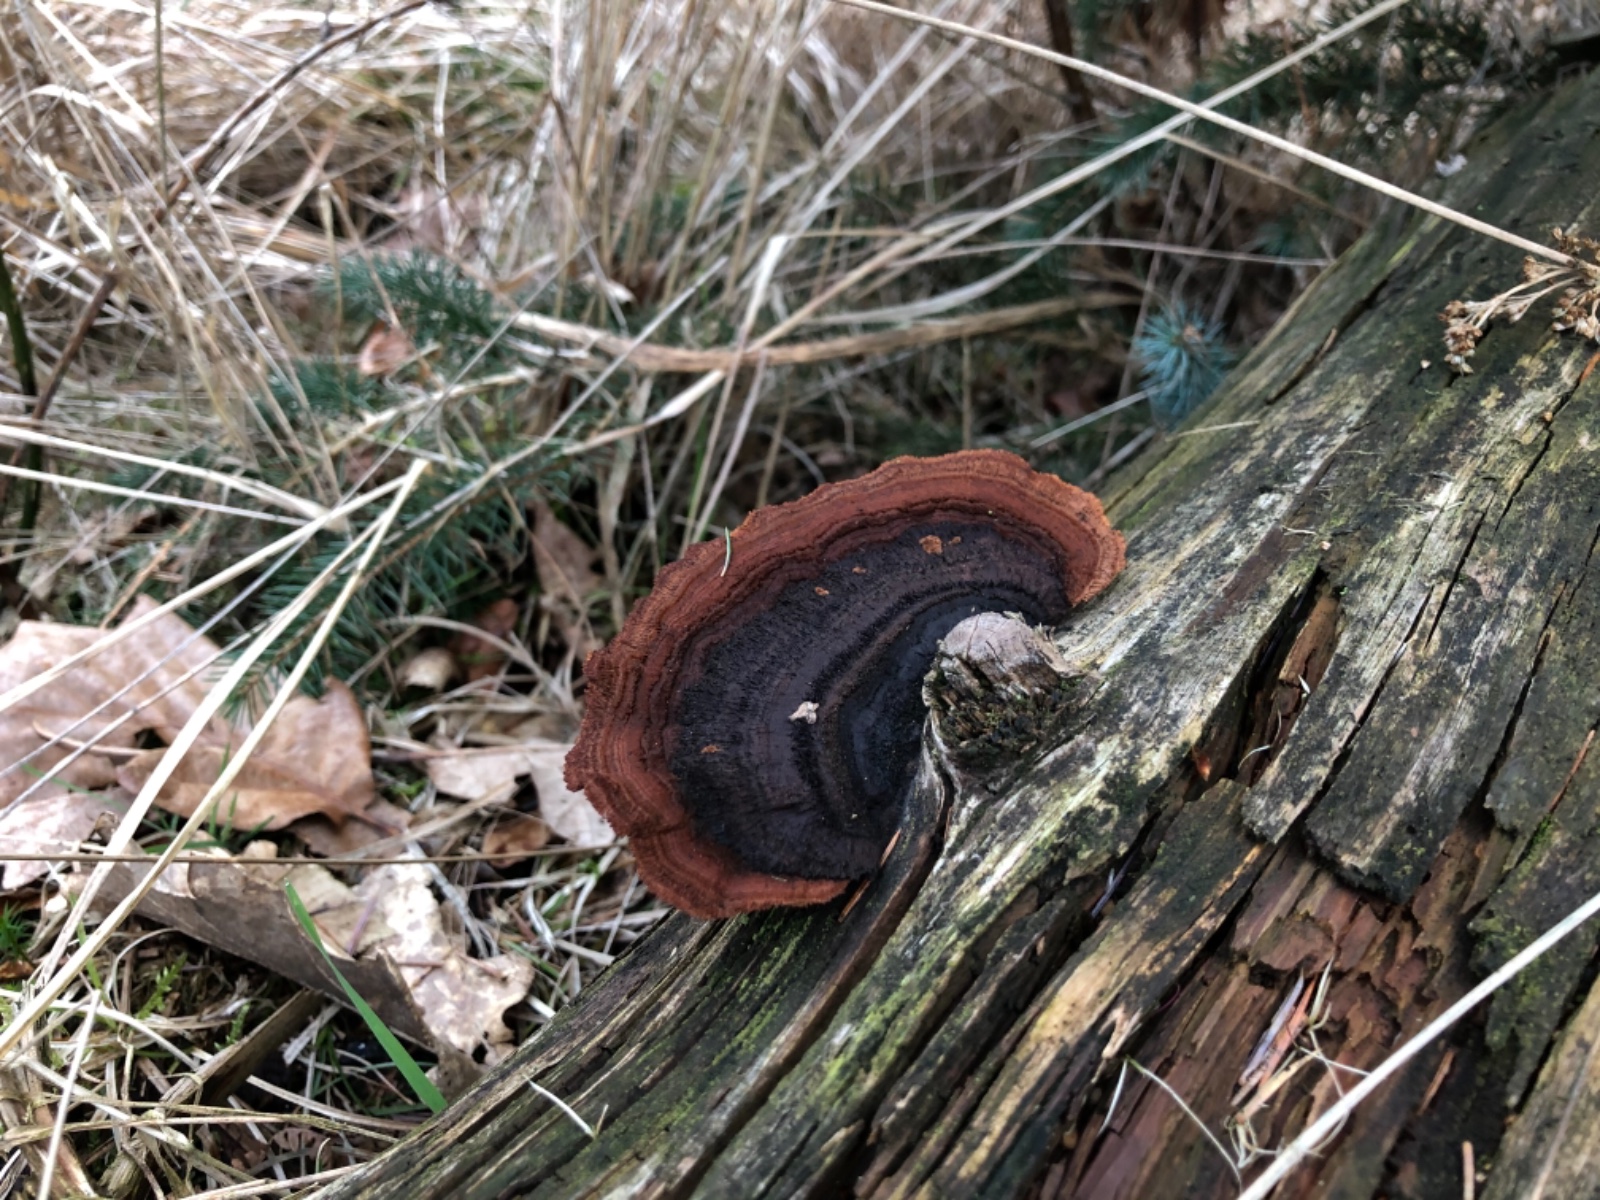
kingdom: Fungi
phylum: Basidiomycota
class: Agaricomycetes
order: Gloeophyllales
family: Gloeophyllaceae
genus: Gloeophyllum
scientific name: Gloeophyllum sepiarium
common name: fyrre-korkhat
